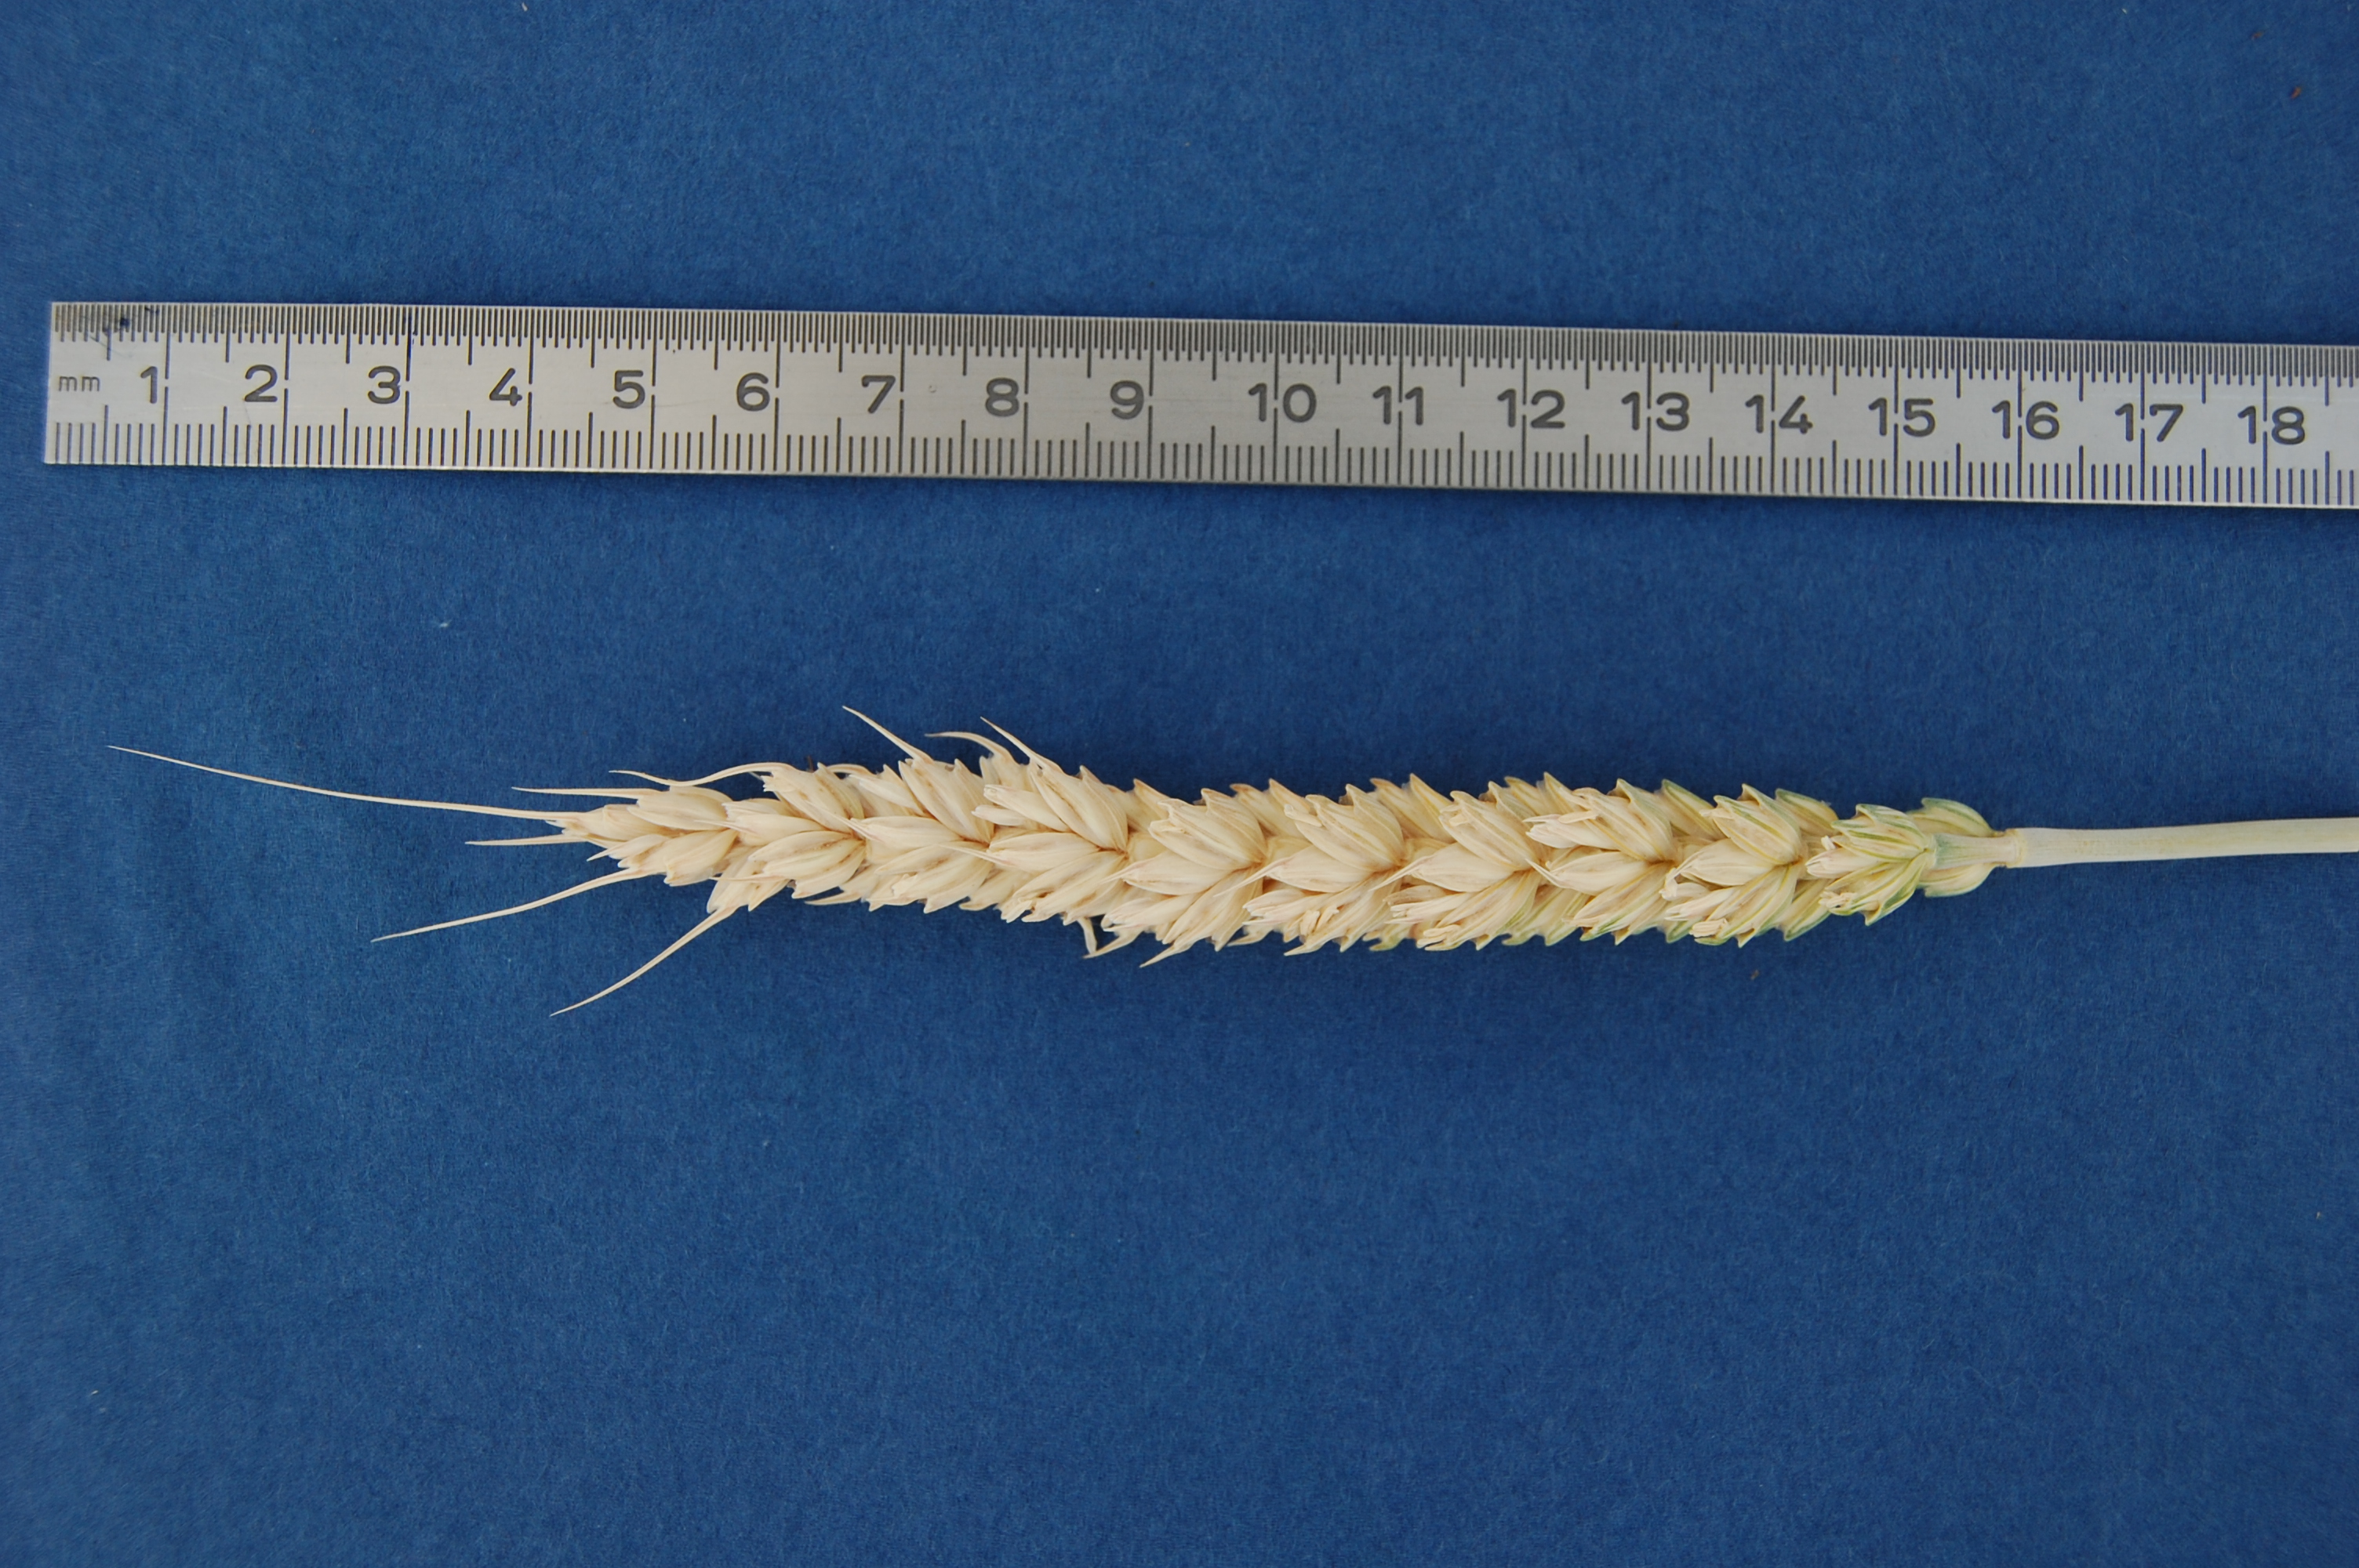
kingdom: Plantae
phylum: Tracheophyta
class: Liliopsida
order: Poales
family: Poaceae
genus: Triticum
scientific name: Triticum aestivum
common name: Common wheat
